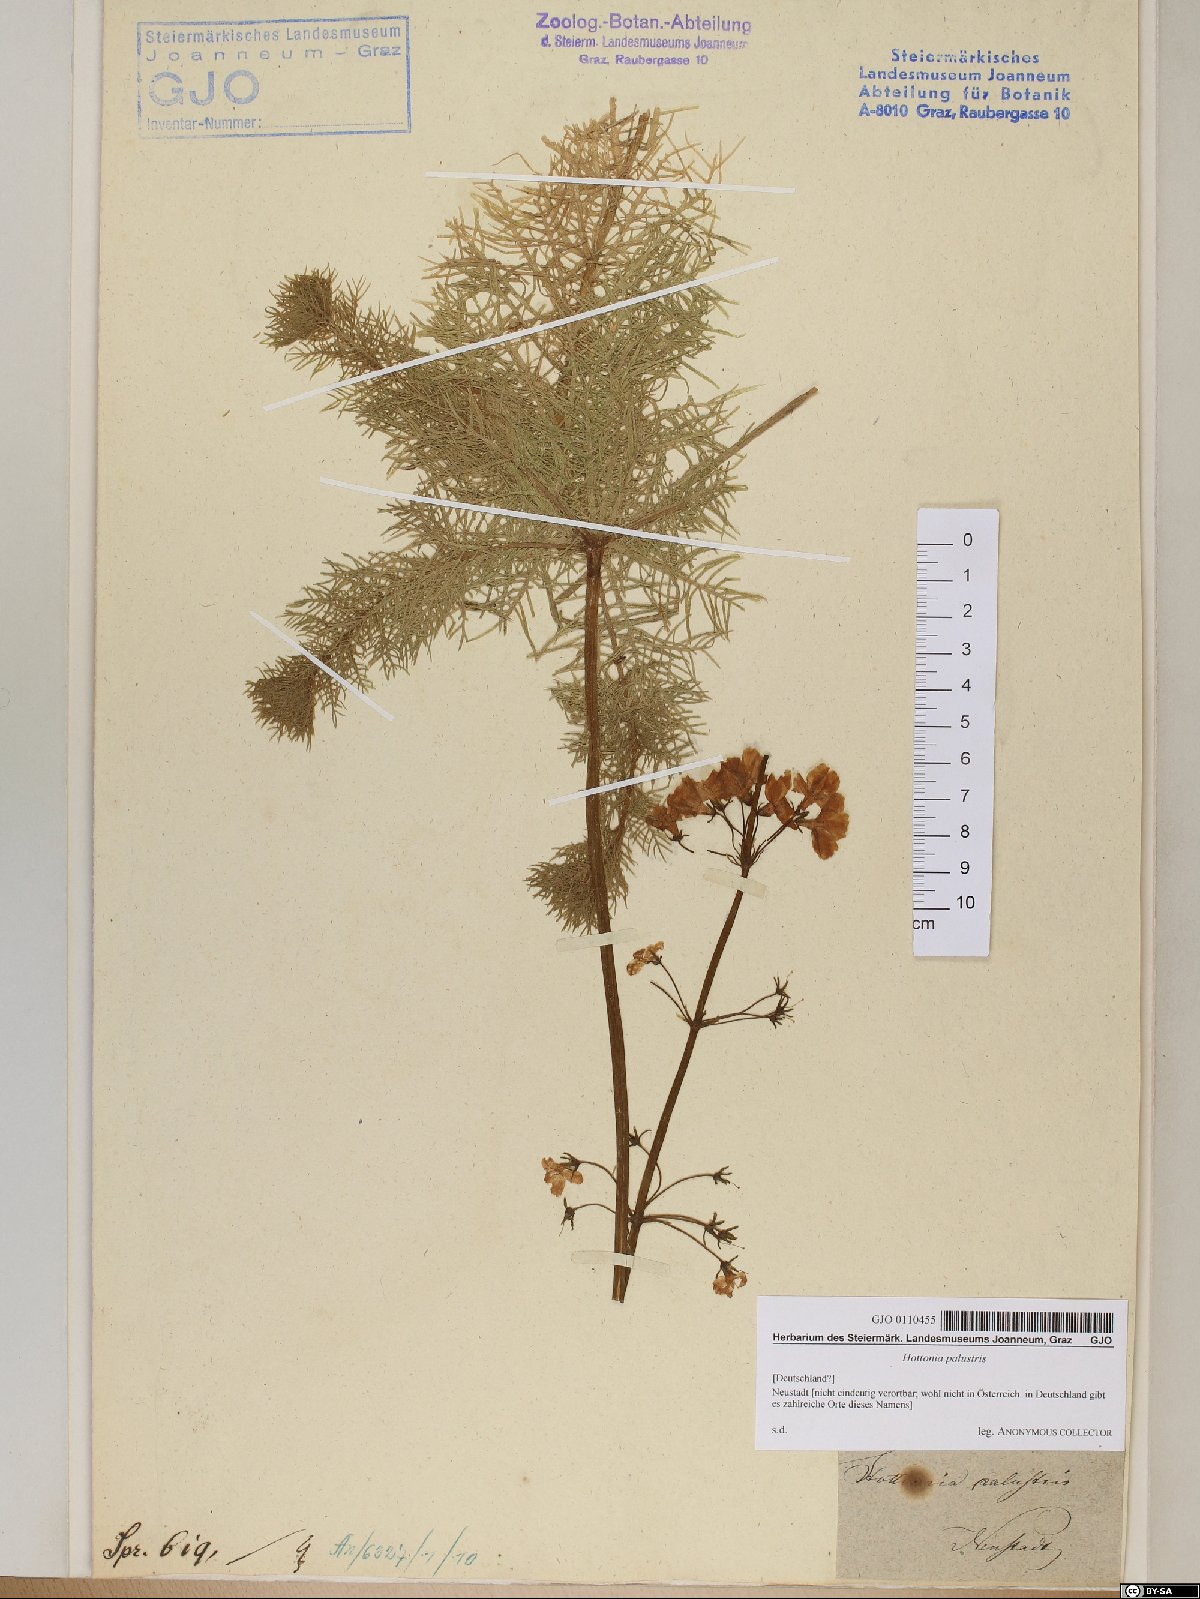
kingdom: Plantae
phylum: Tracheophyta
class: Magnoliopsida
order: Ericales
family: Primulaceae
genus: Hottonia
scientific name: Hottonia palustris
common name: Water-violet
